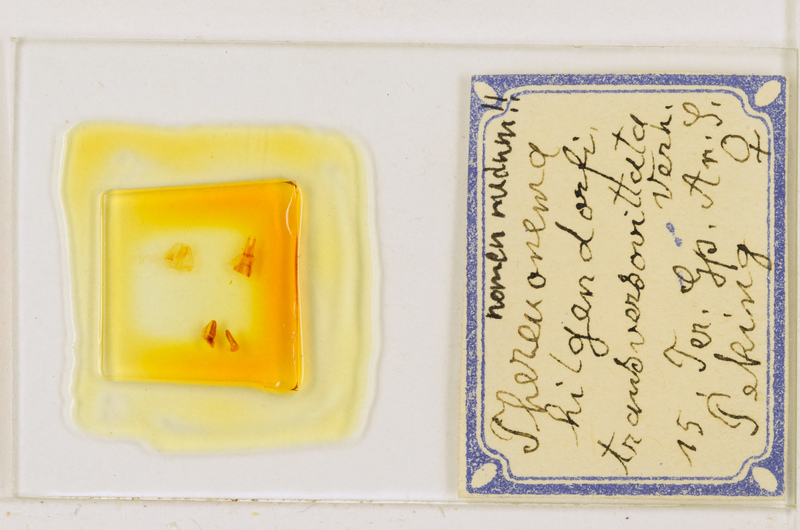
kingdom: Animalia
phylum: Arthropoda
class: Chilopoda
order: Scutigeromorpha
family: Scutigeridae
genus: Thereuonema
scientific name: Thereuonema tuberculata
